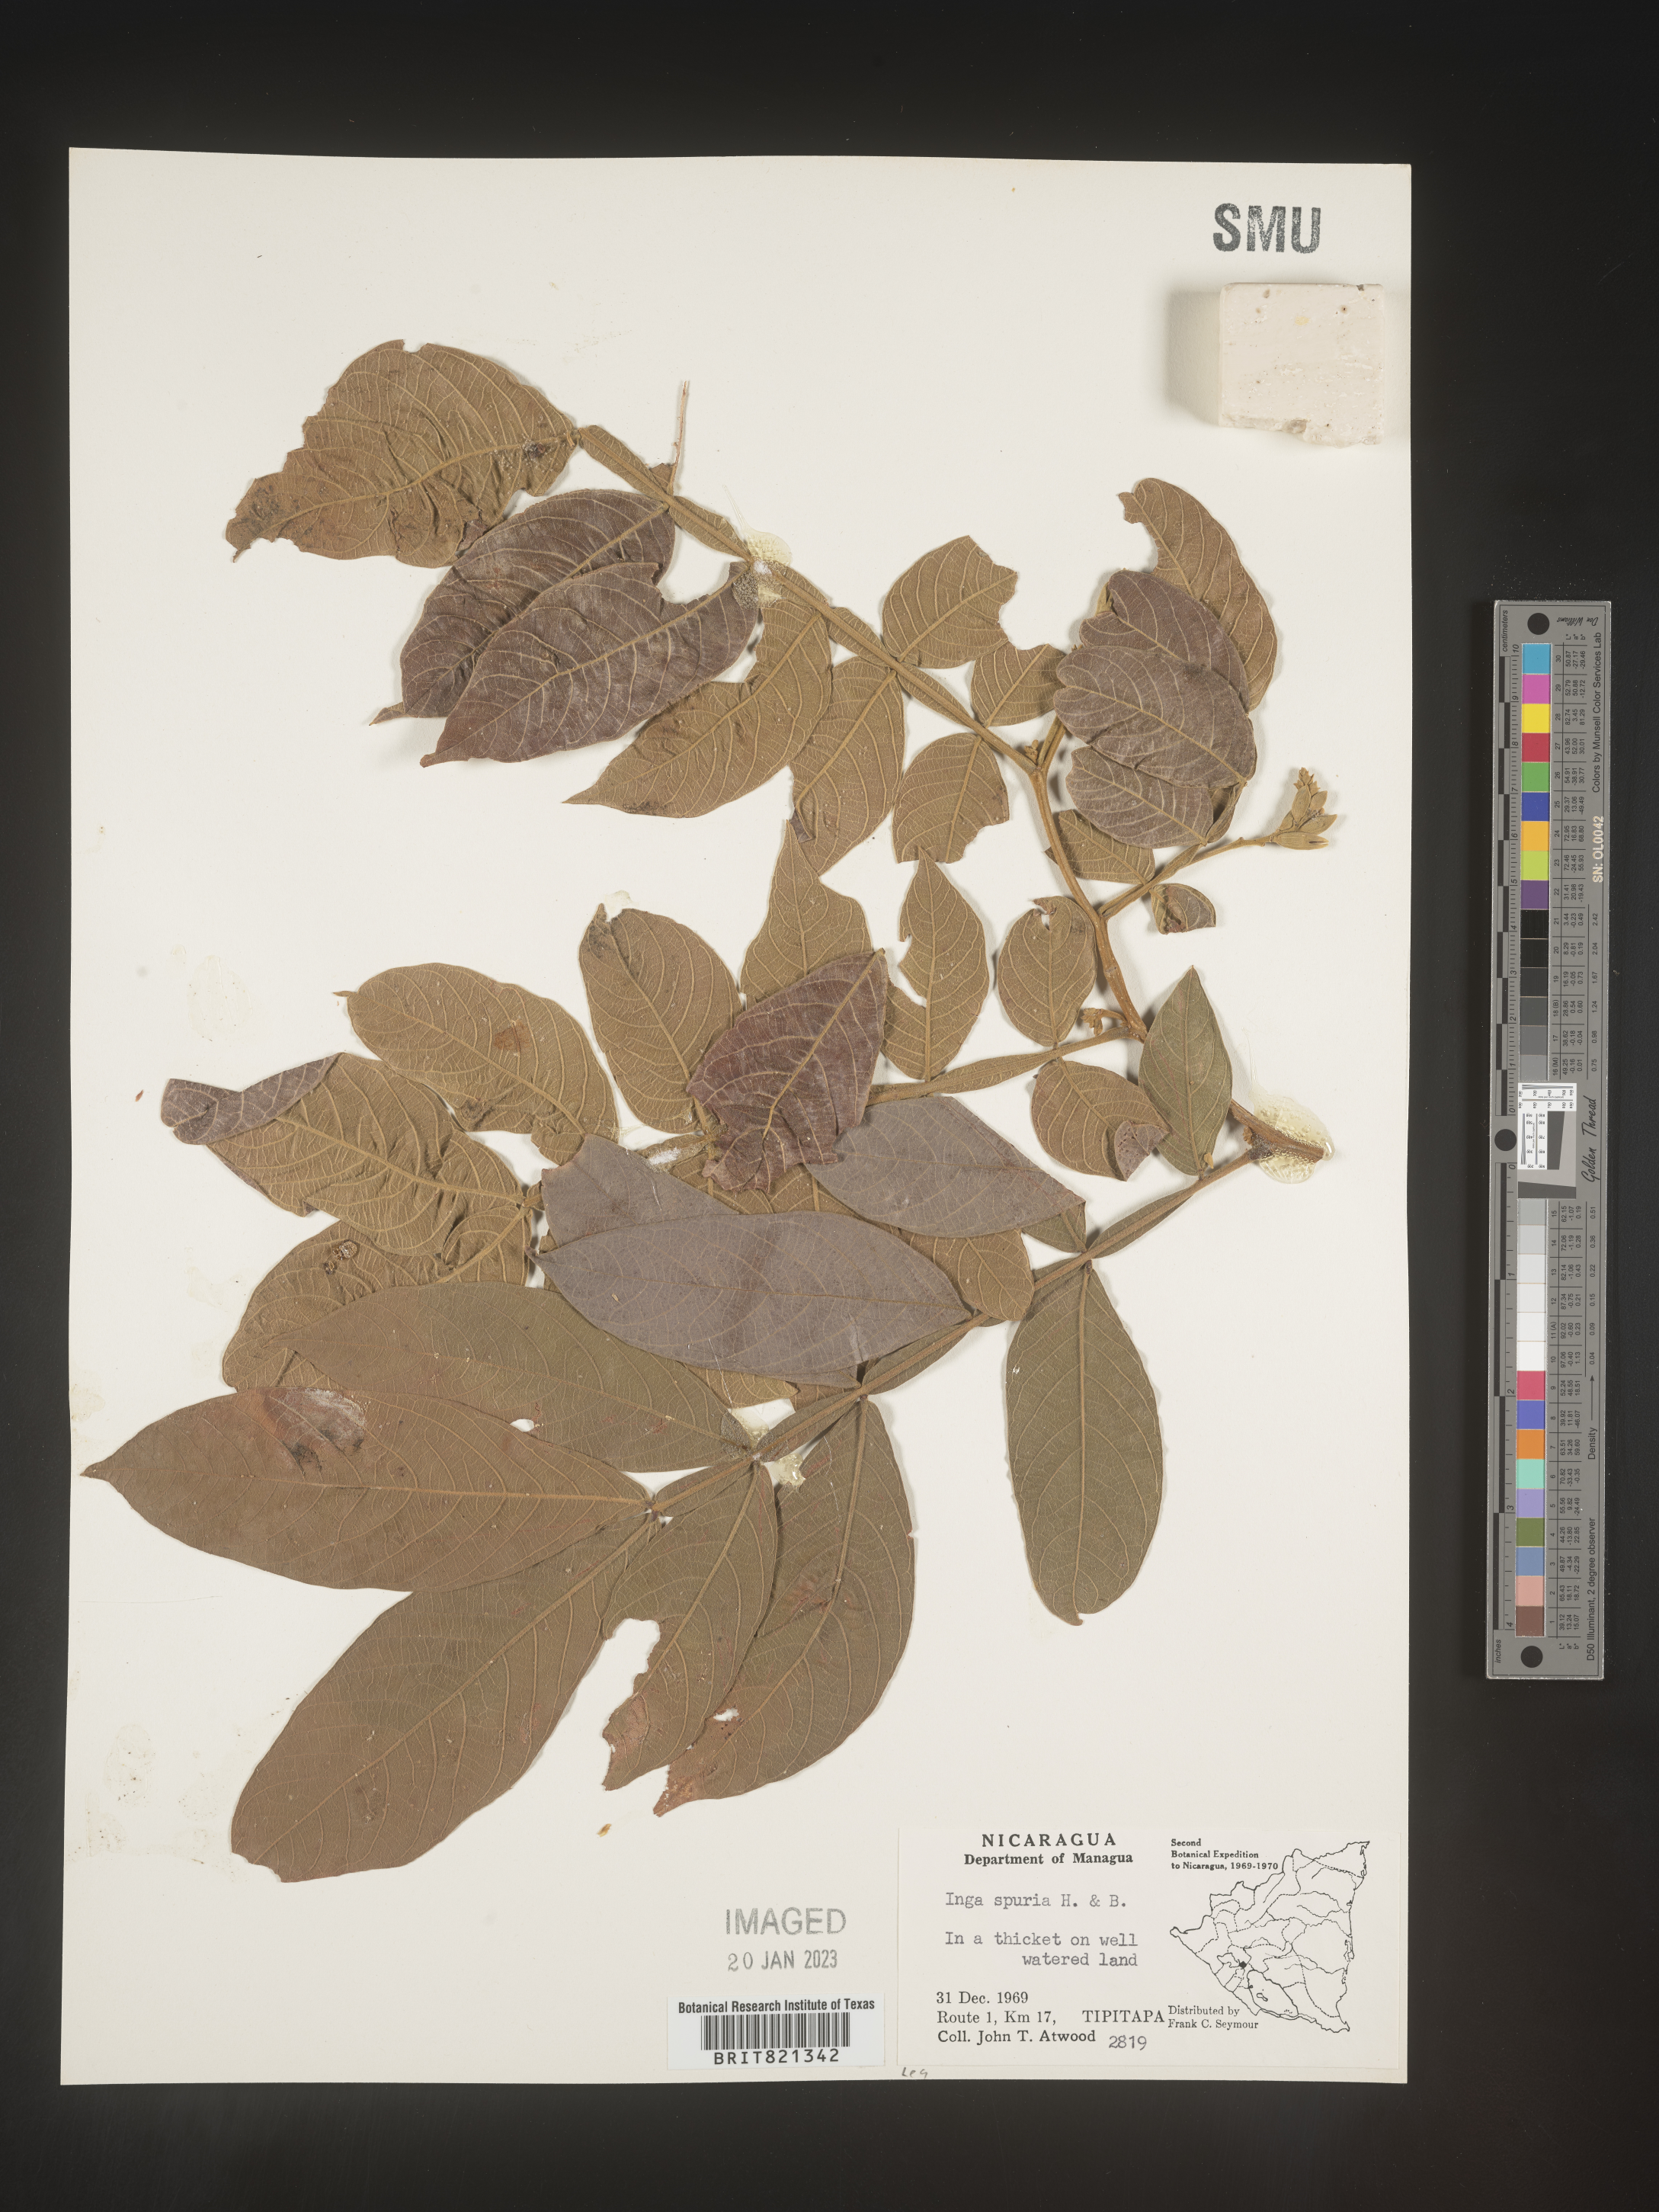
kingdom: Plantae
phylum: Tracheophyta
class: Magnoliopsida
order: Fabales
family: Fabaceae
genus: Inga
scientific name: Inga
